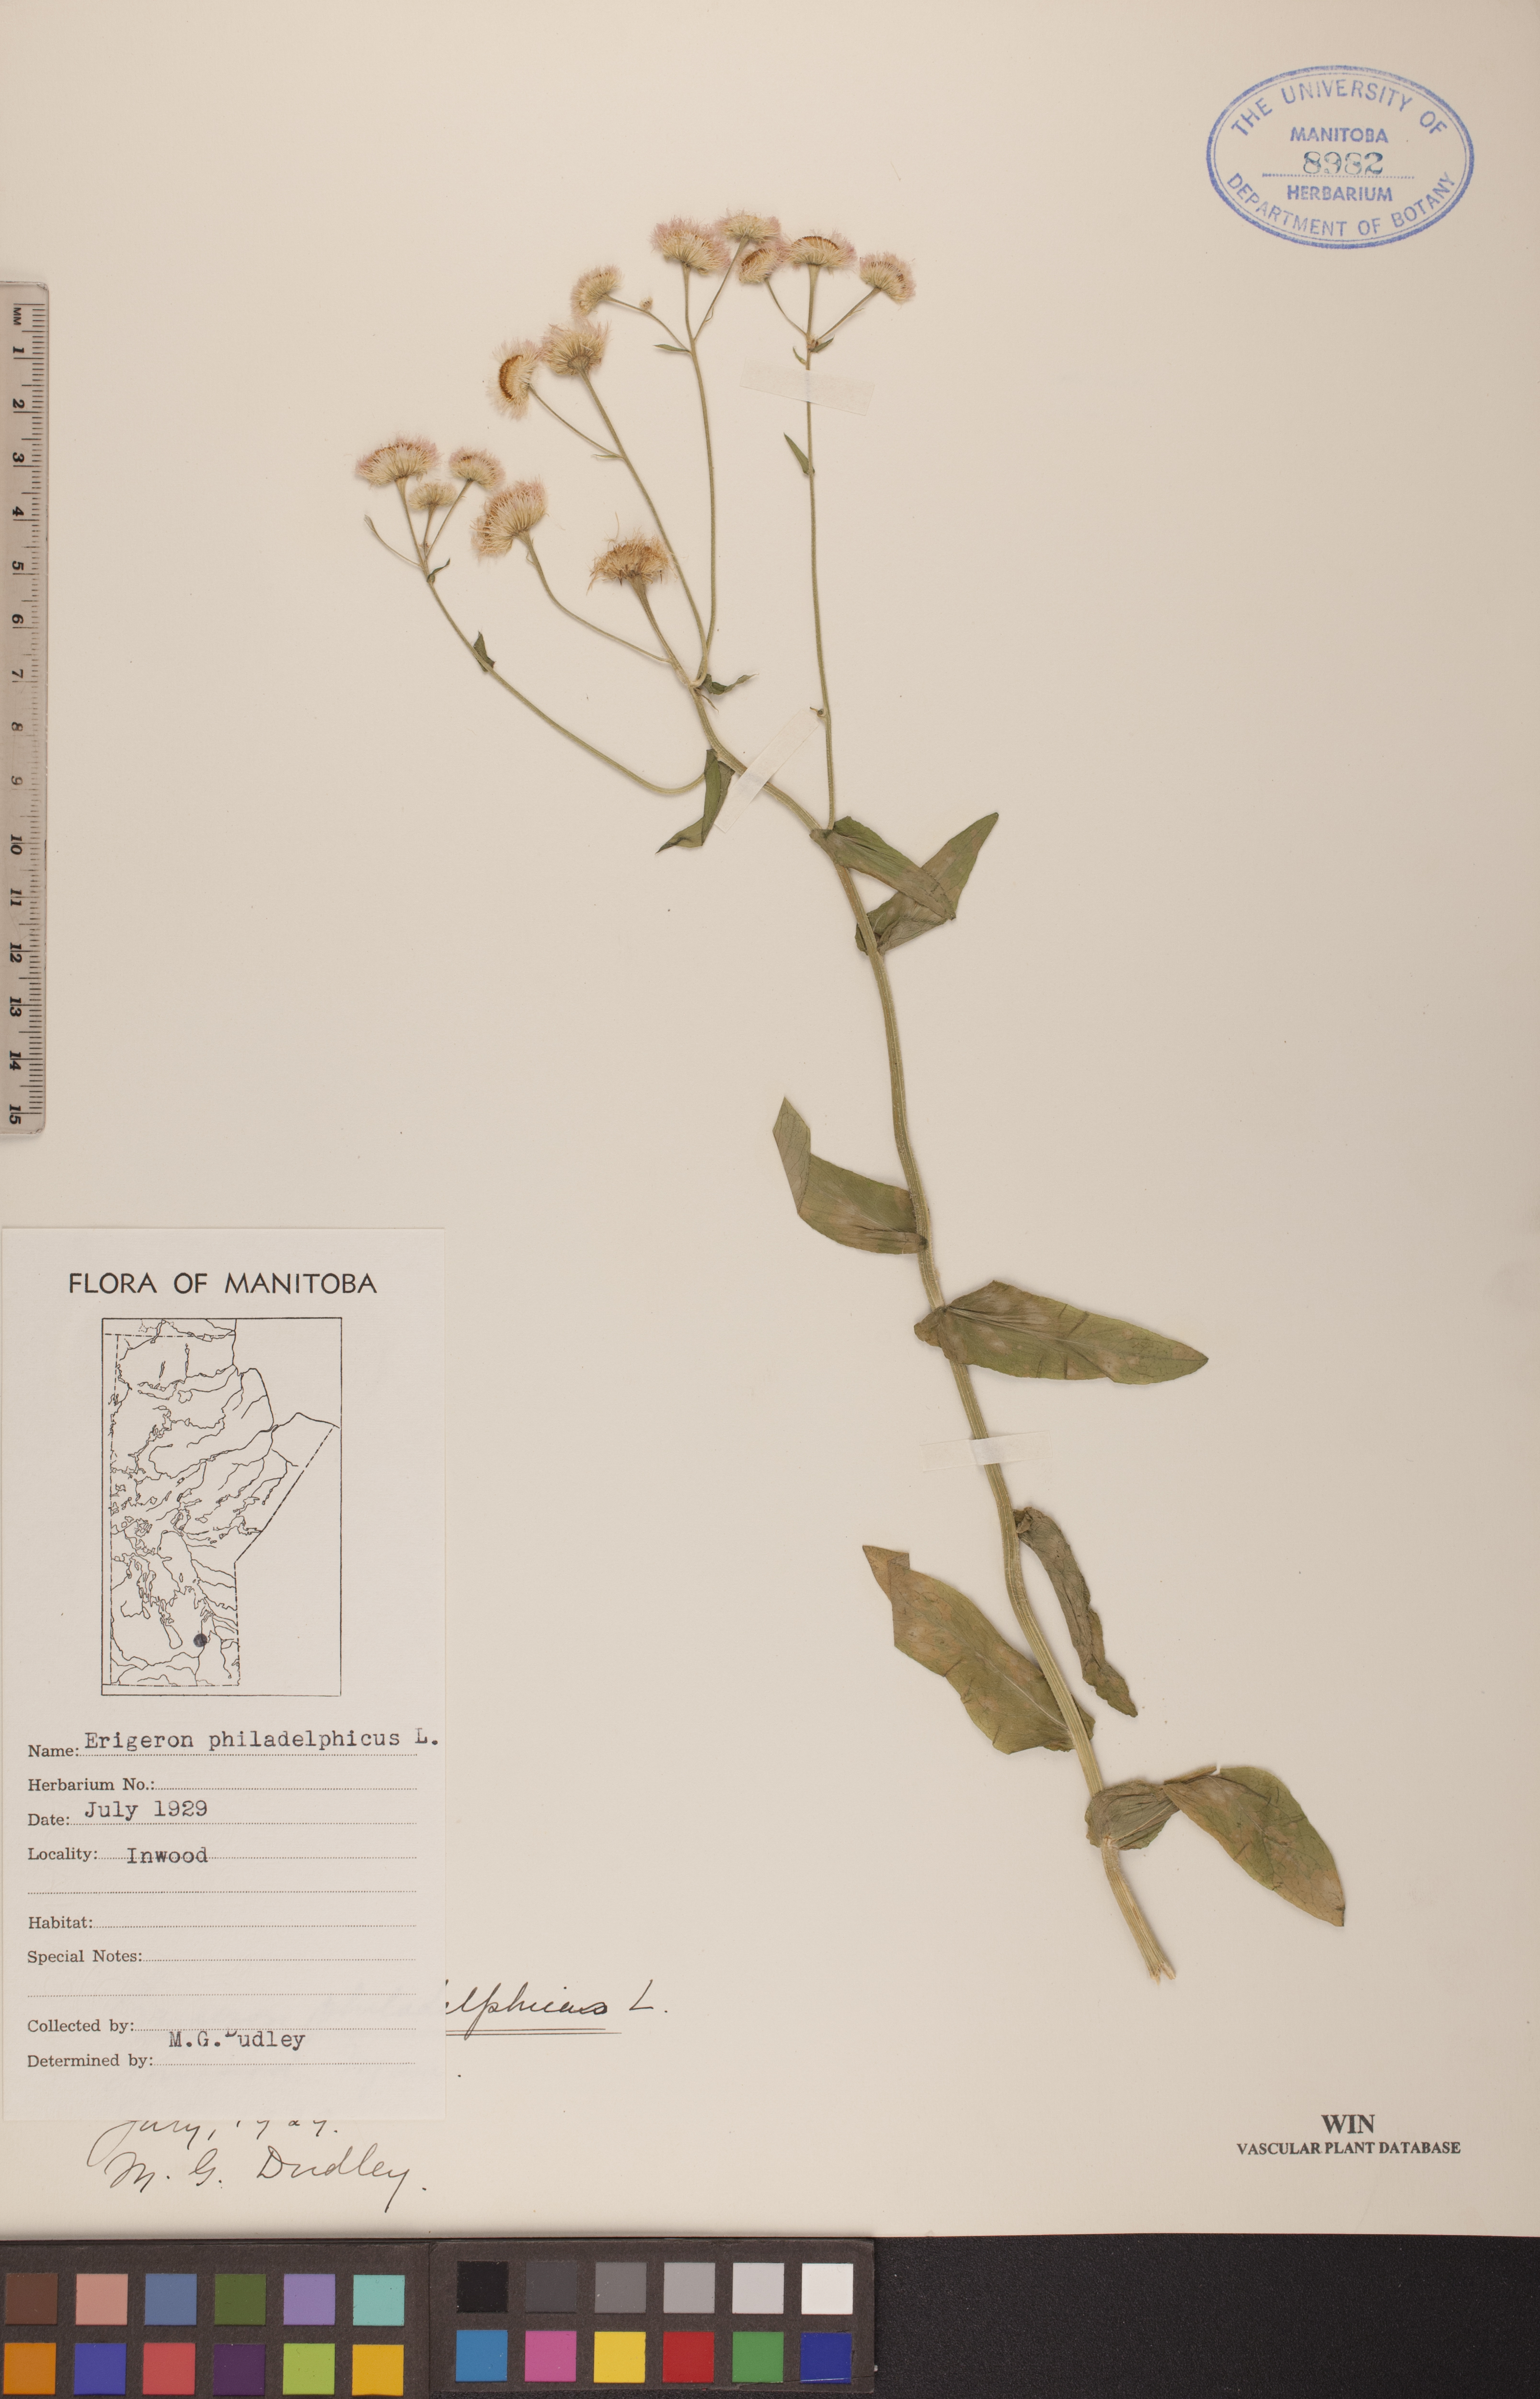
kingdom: Plantae
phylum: Tracheophyta
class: Magnoliopsida
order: Asterales
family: Asteraceae
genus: Erigeron
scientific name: Erigeron philadelphicus
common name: Robin's-plantain
